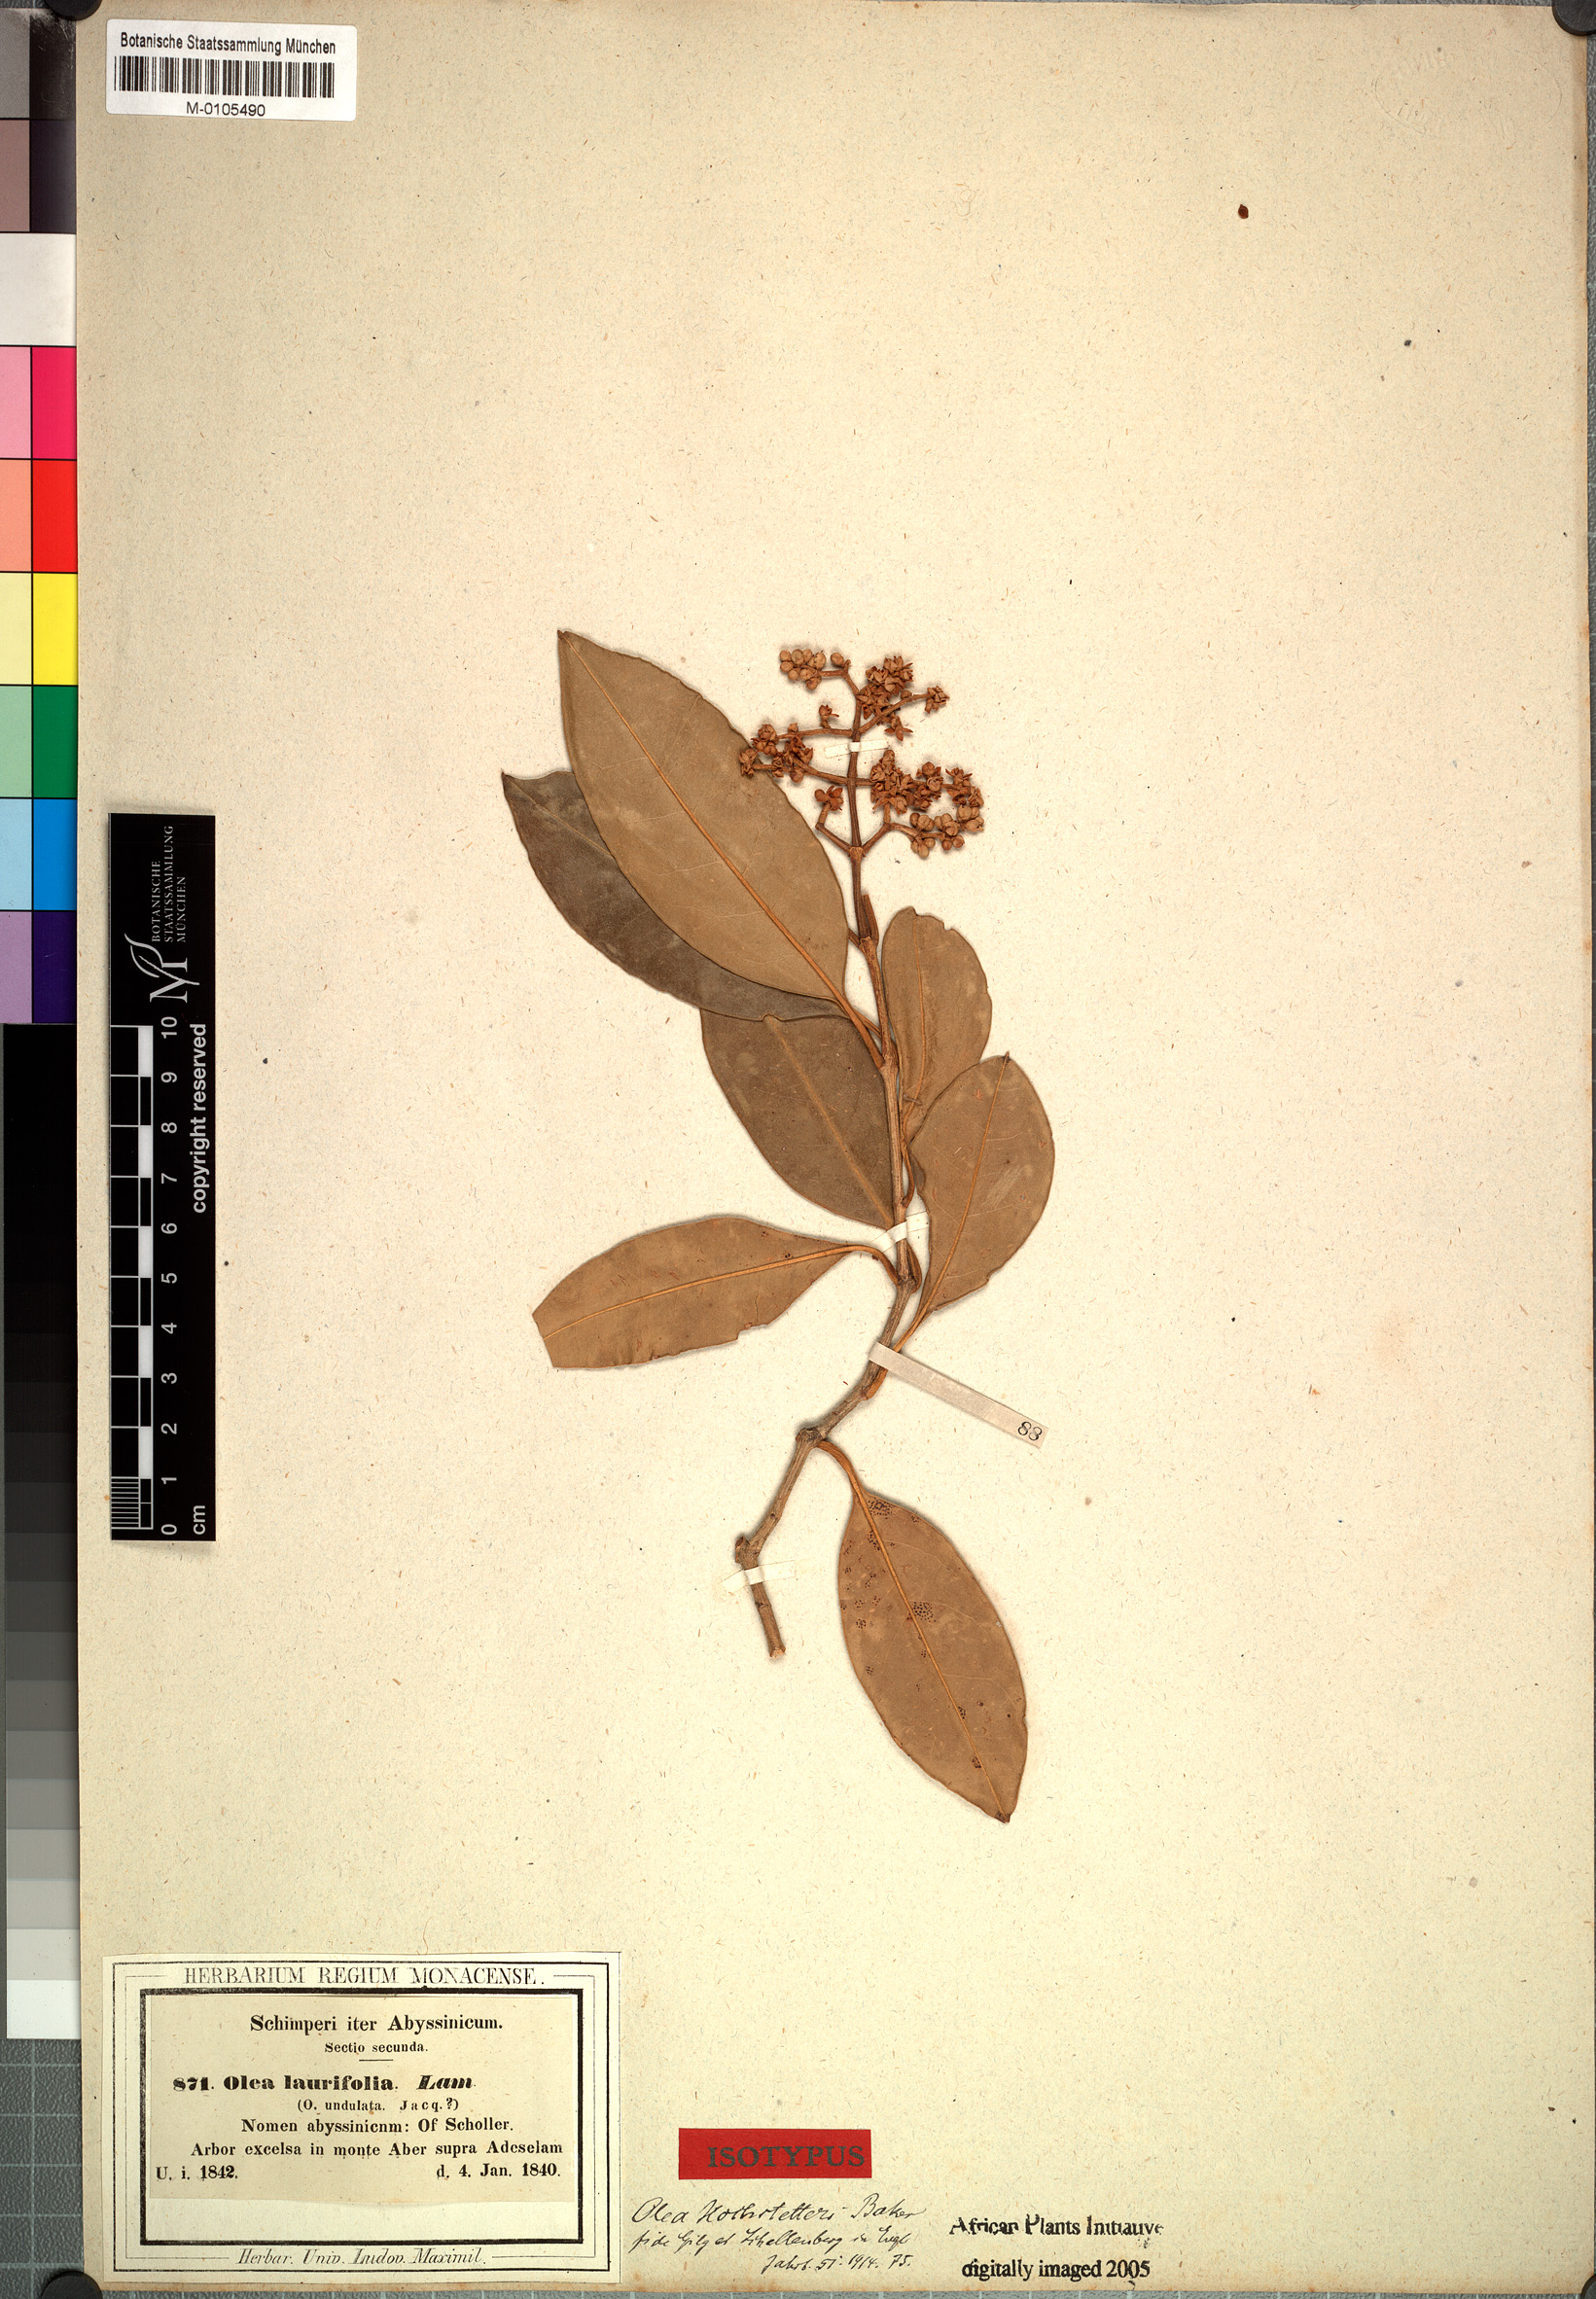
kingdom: Plantae
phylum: Tracheophyta
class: Magnoliopsida
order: Lamiales
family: Oleaceae
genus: Olea
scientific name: Olea capensis
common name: Black ironwood
